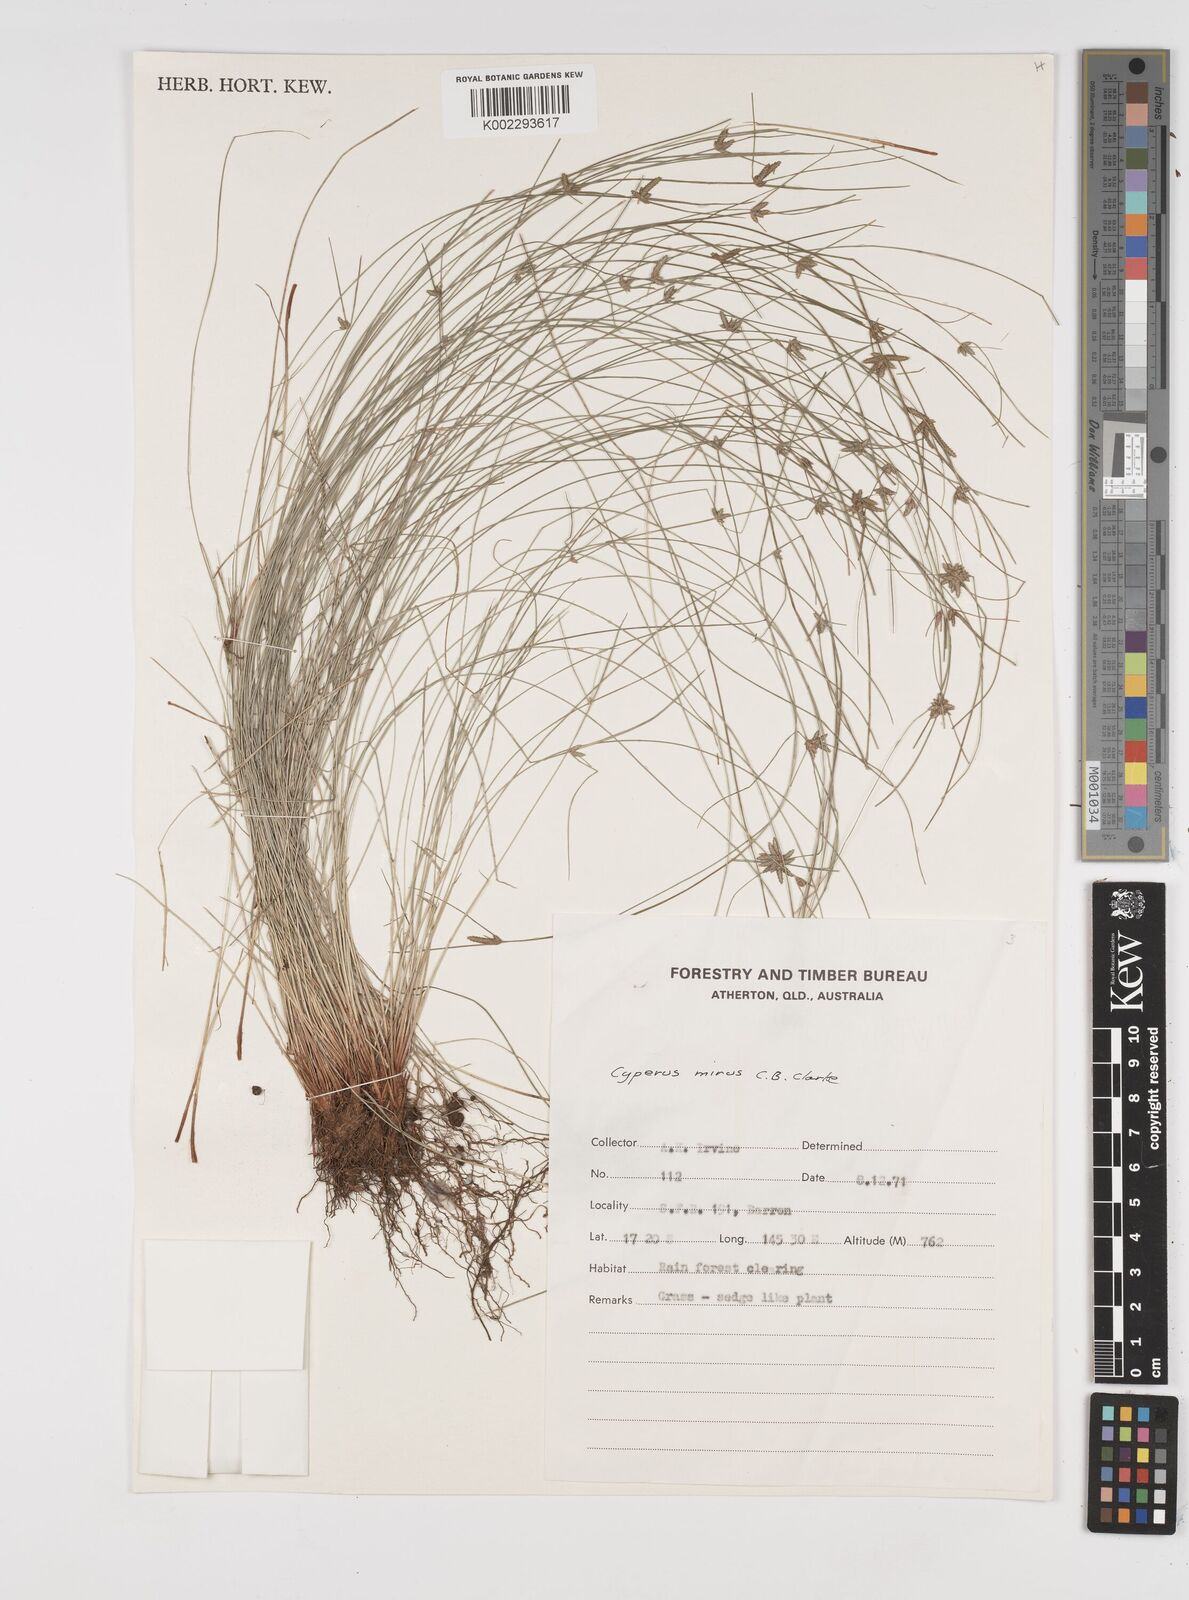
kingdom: Plantae
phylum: Tracheophyta
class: Liliopsida
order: Poales
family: Cyperaceae
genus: Cyperus
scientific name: Cyperus mirus
